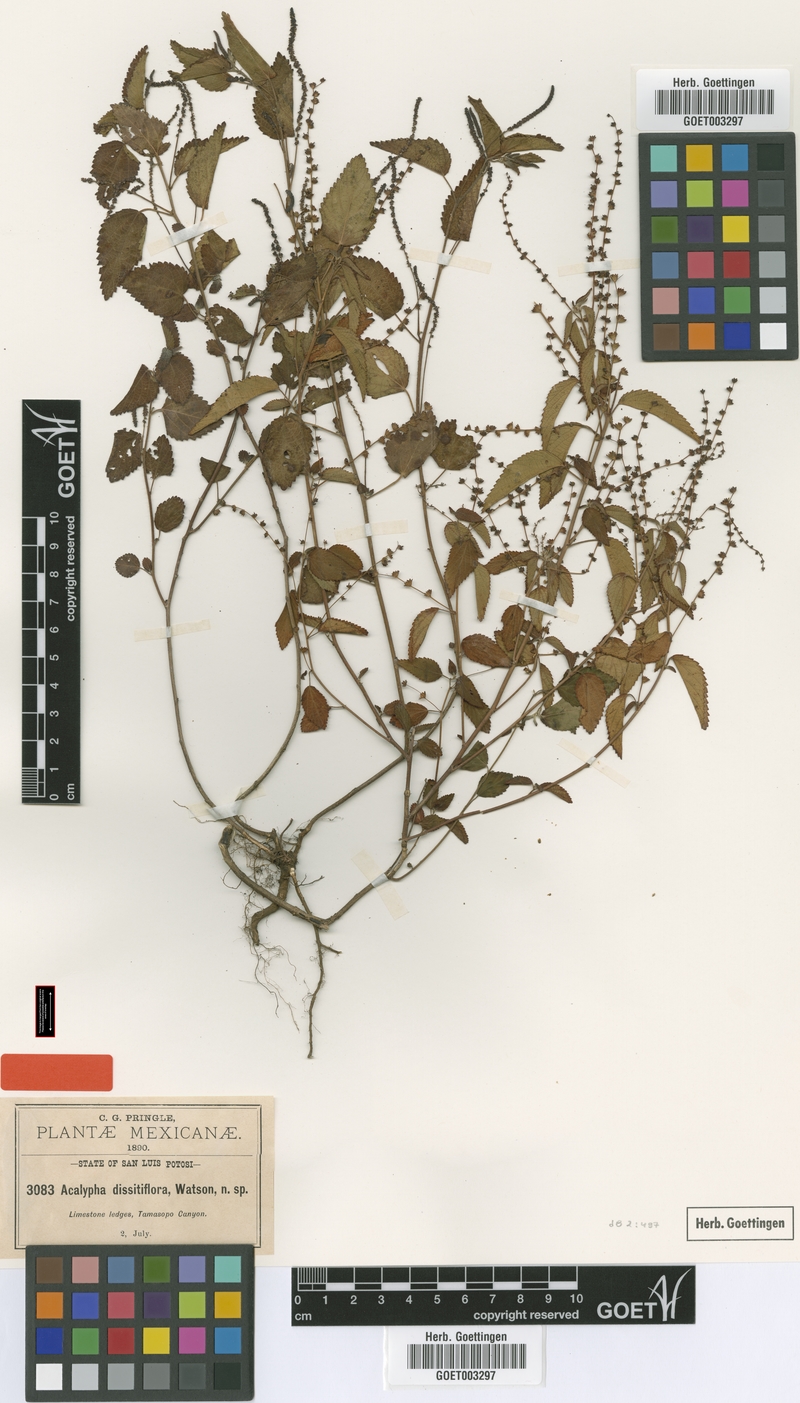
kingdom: Plantae
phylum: Tracheophyta
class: Magnoliopsida
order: Malpighiales
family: Euphorbiaceae
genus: Acalypha
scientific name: Acalypha dioica
